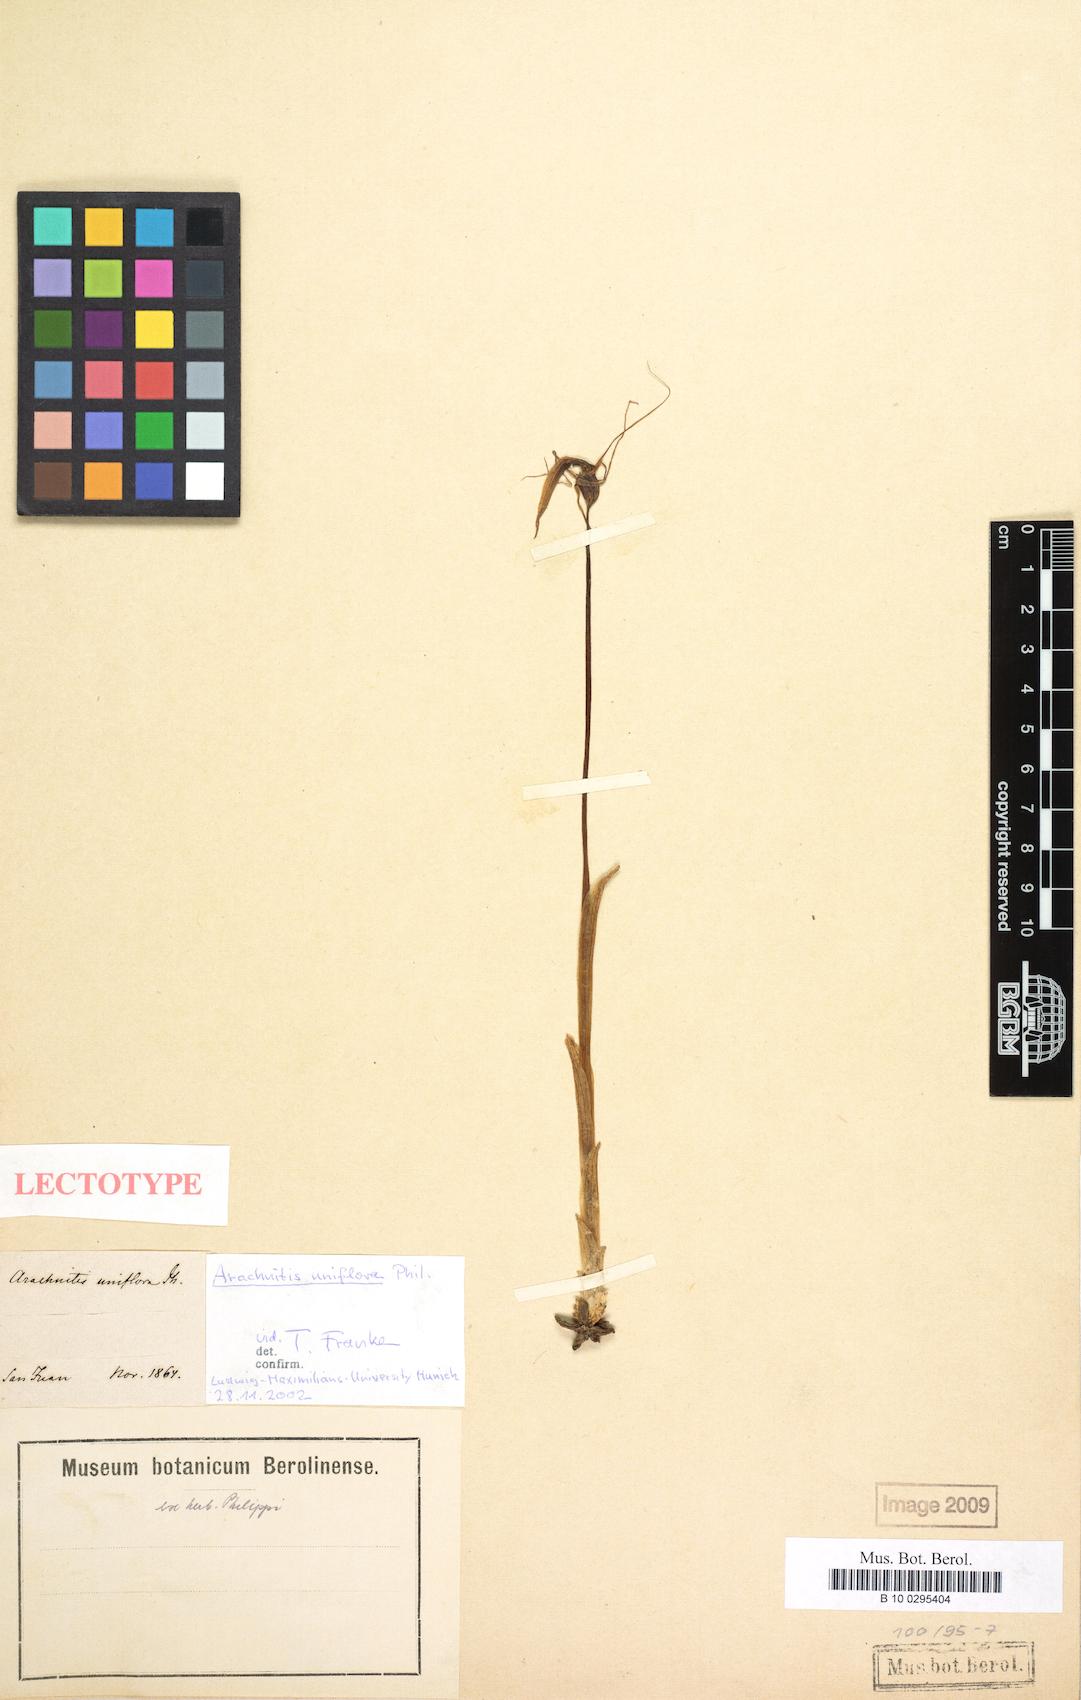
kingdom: Plantae
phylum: Tracheophyta
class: Liliopsida
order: Liliales
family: Corsiaceae
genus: Arachnitis
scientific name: Arachnitis uniflora
